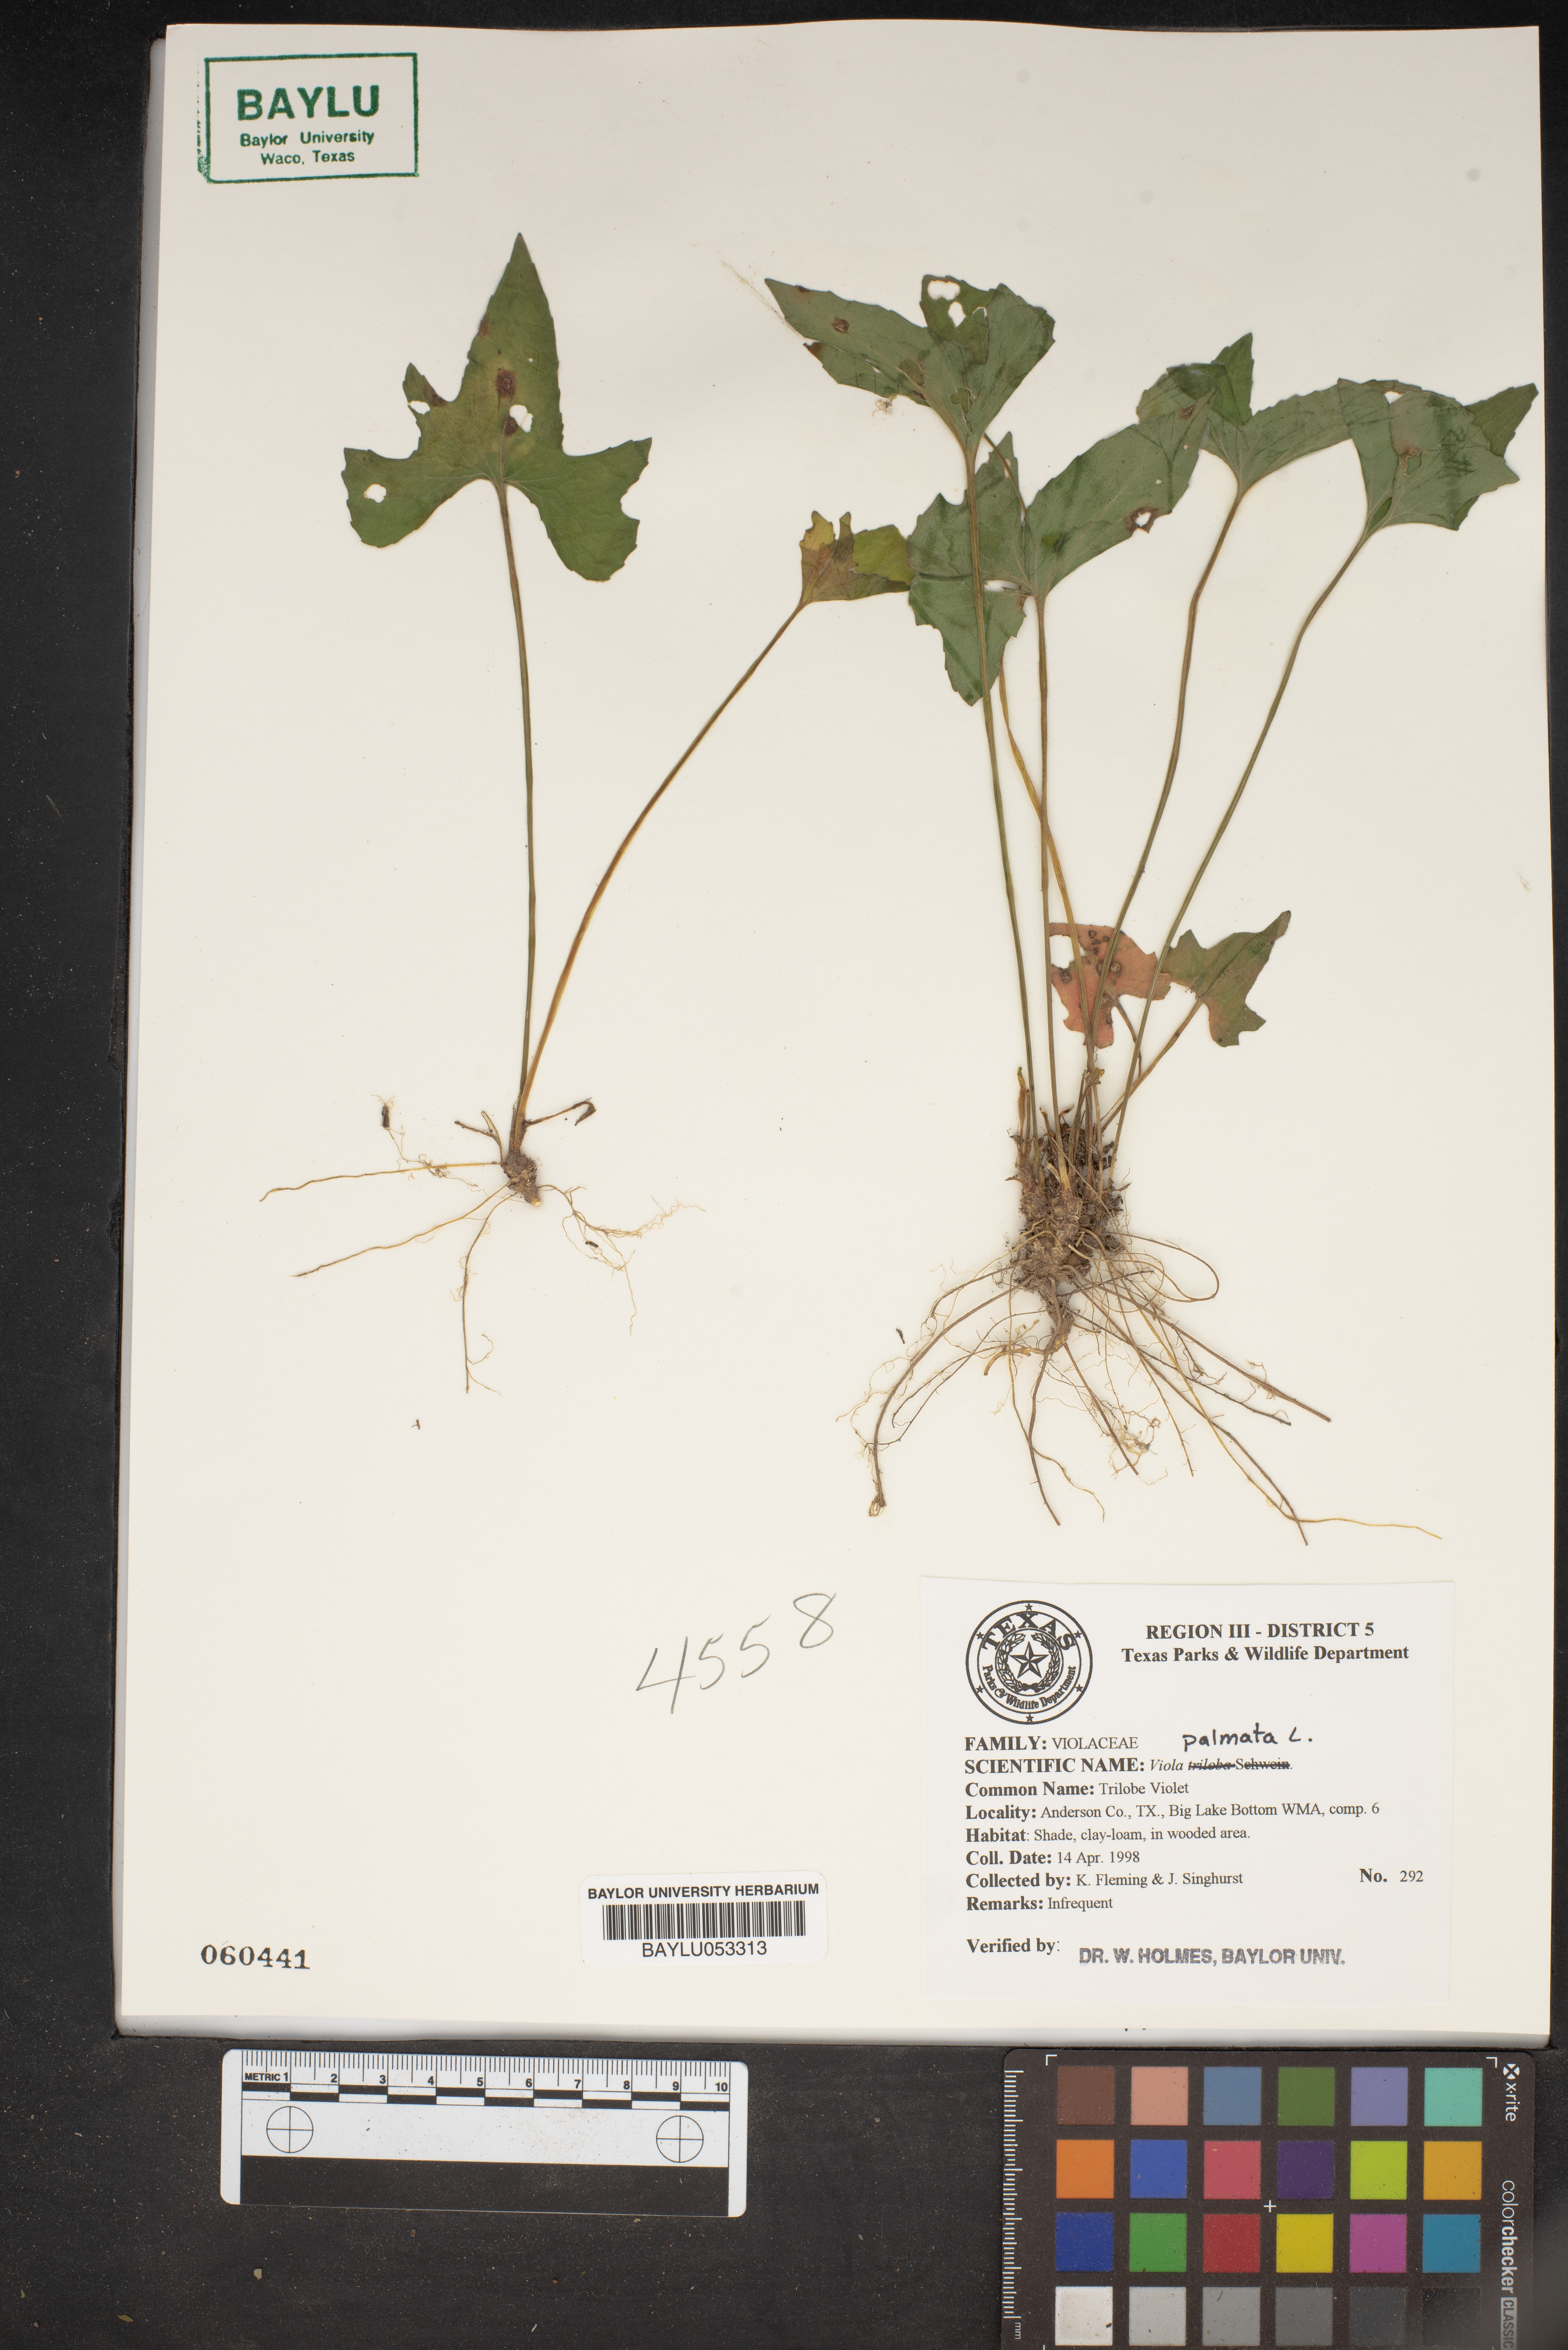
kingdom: Plantae
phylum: Tracheophyta
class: Magnoliopsida
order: Malpighiales
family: Violaceae
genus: Viola
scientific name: Viola palmata
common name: Early blue violet
